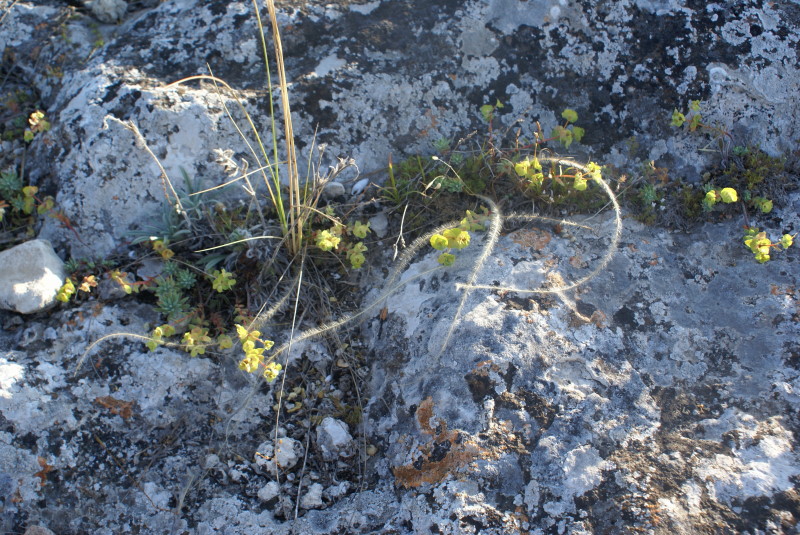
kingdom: Plantae
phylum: Tracheophyta
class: Liliopsida
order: Poales
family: Poaceae
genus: Stipa
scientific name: Stipa
